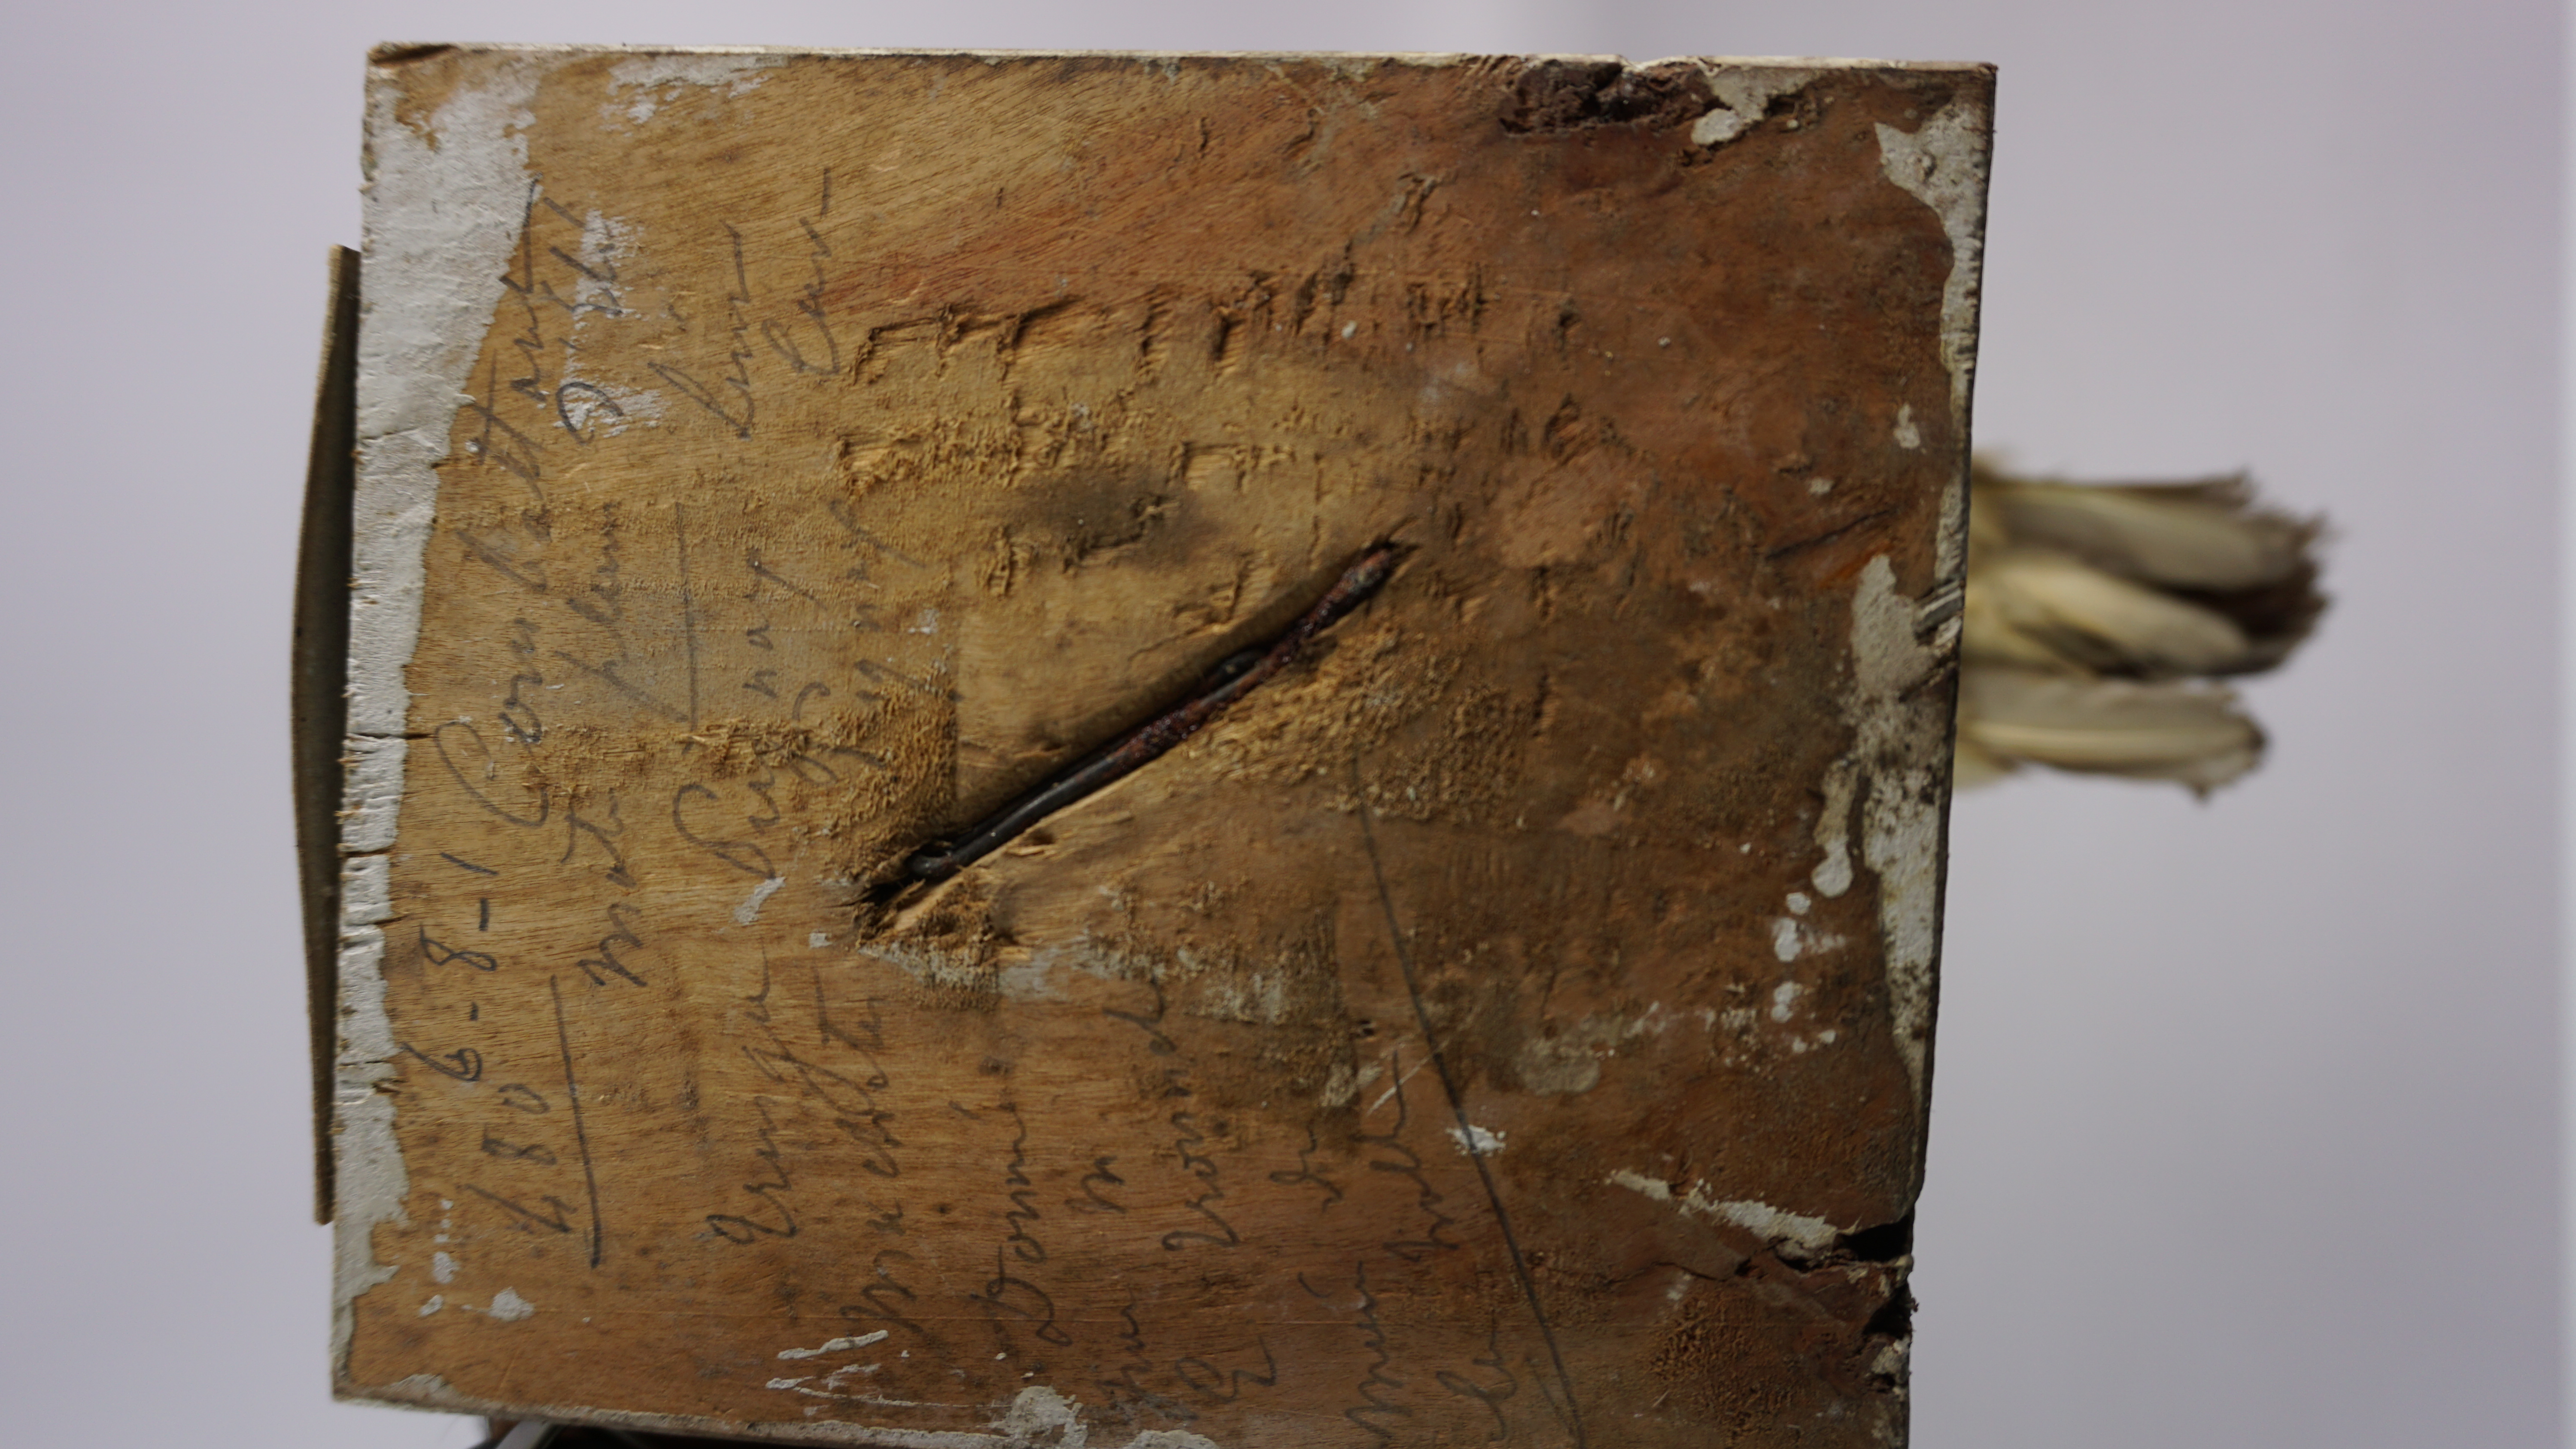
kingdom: Animalia
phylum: Chordata
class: Aves
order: Charadriiformes
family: Scolopacidae
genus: Calidris
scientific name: Calidris pugnax
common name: Ruff
